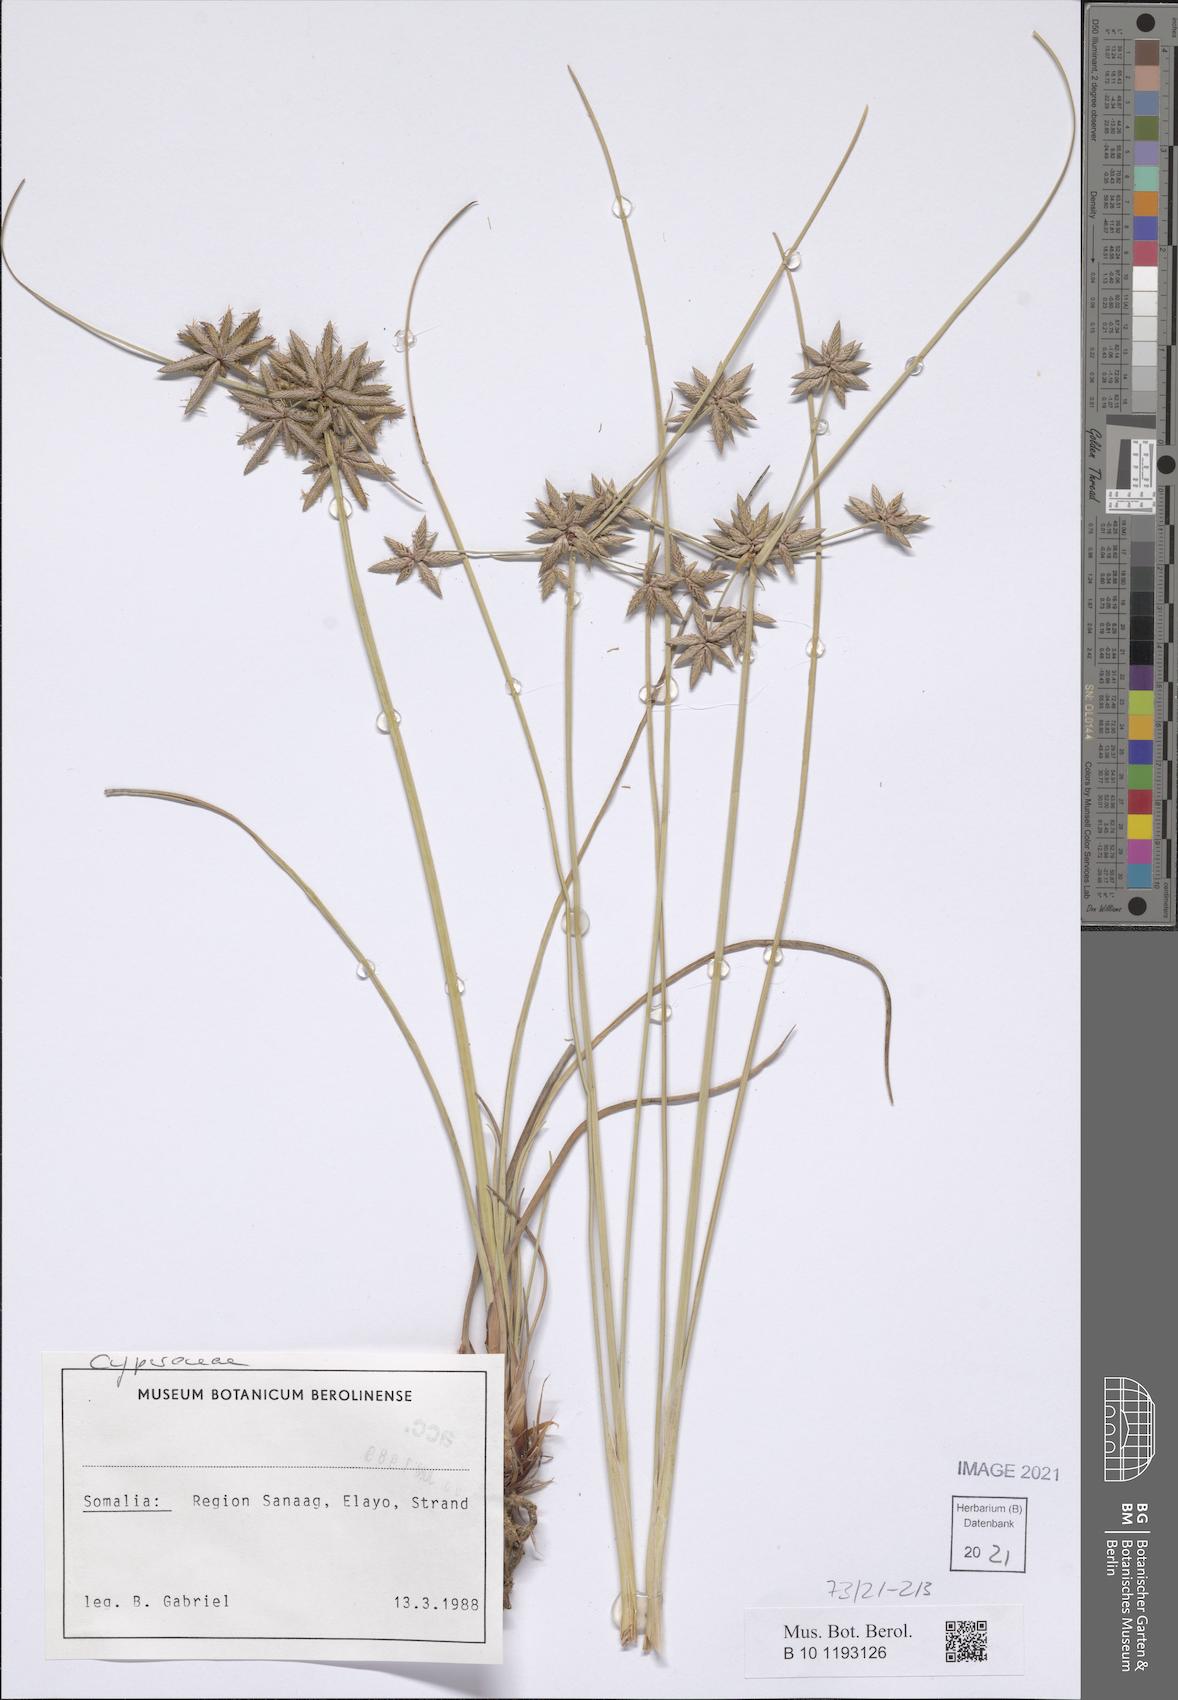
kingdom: Plantae
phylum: Tracheophyta
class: Liliopsida
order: Poales
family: Cyperaceae
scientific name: Cyperaceae
